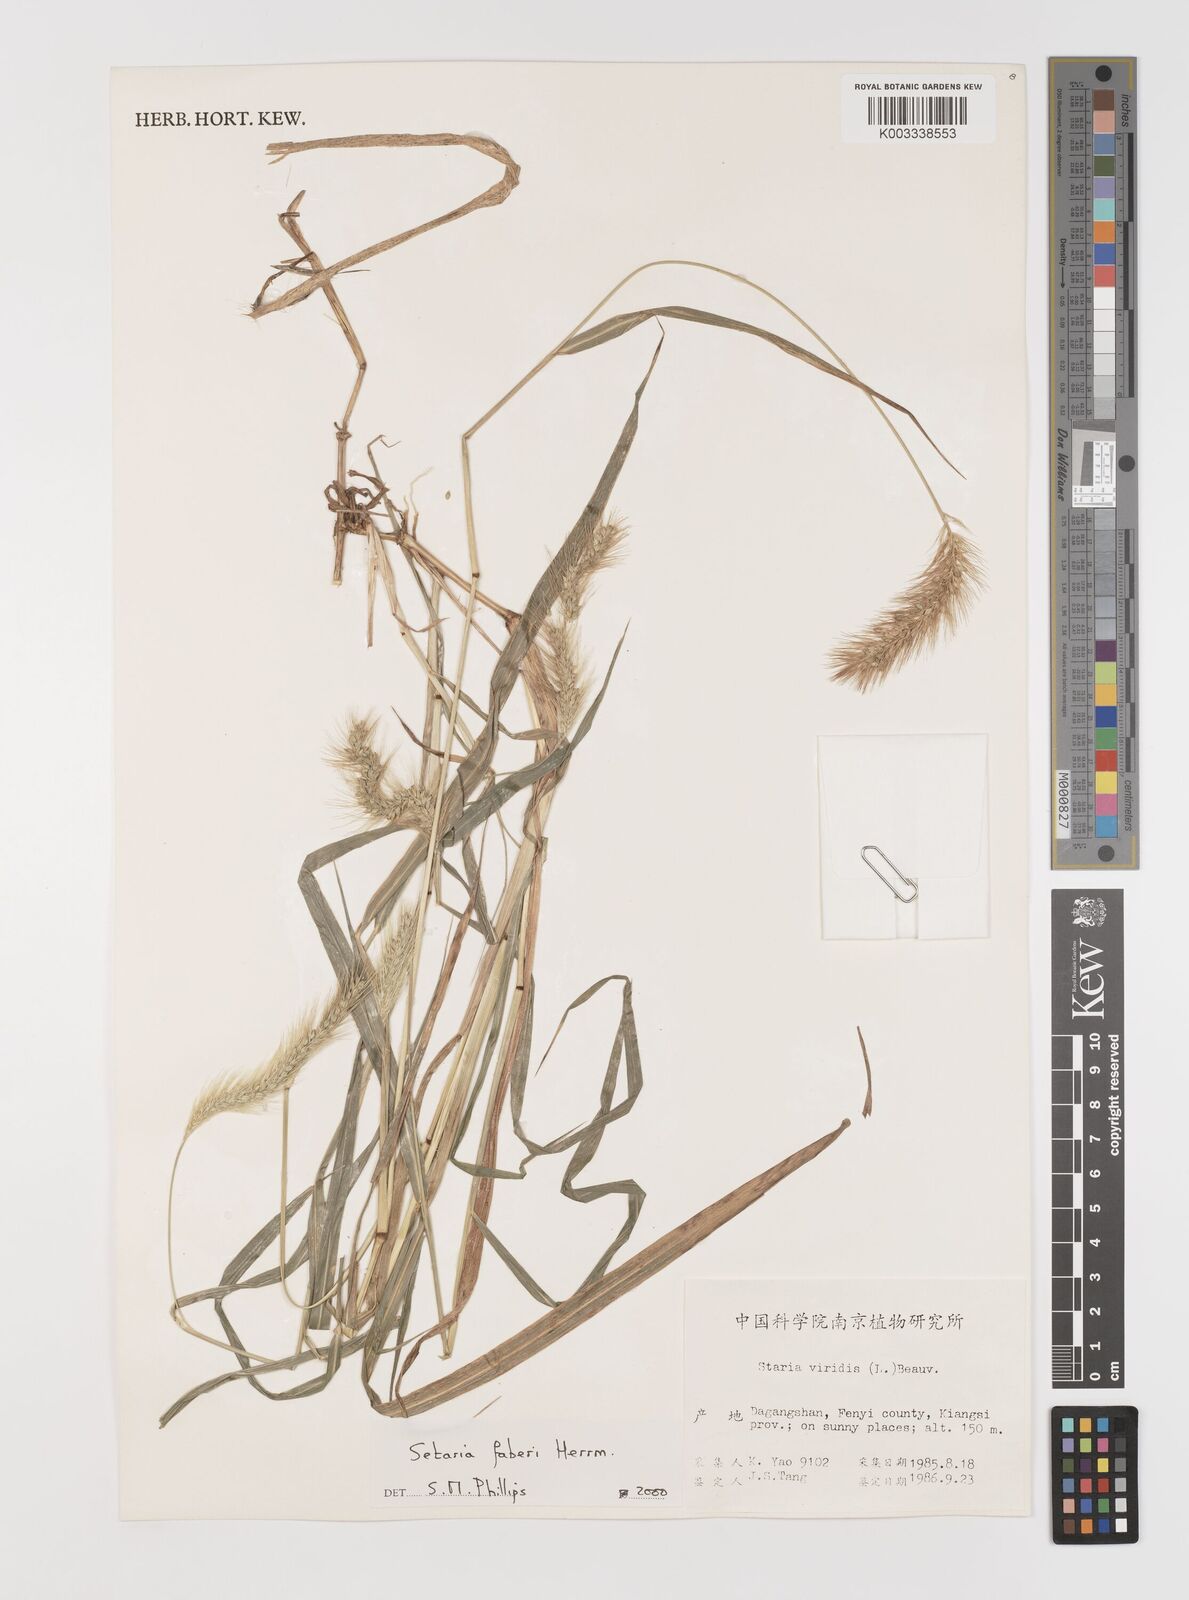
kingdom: Plantae
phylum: Tracheophyta
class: Liliopsida
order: Poales
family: Poaceae
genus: Setaria
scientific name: Setaria faberi
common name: Nodding bristle-grass
